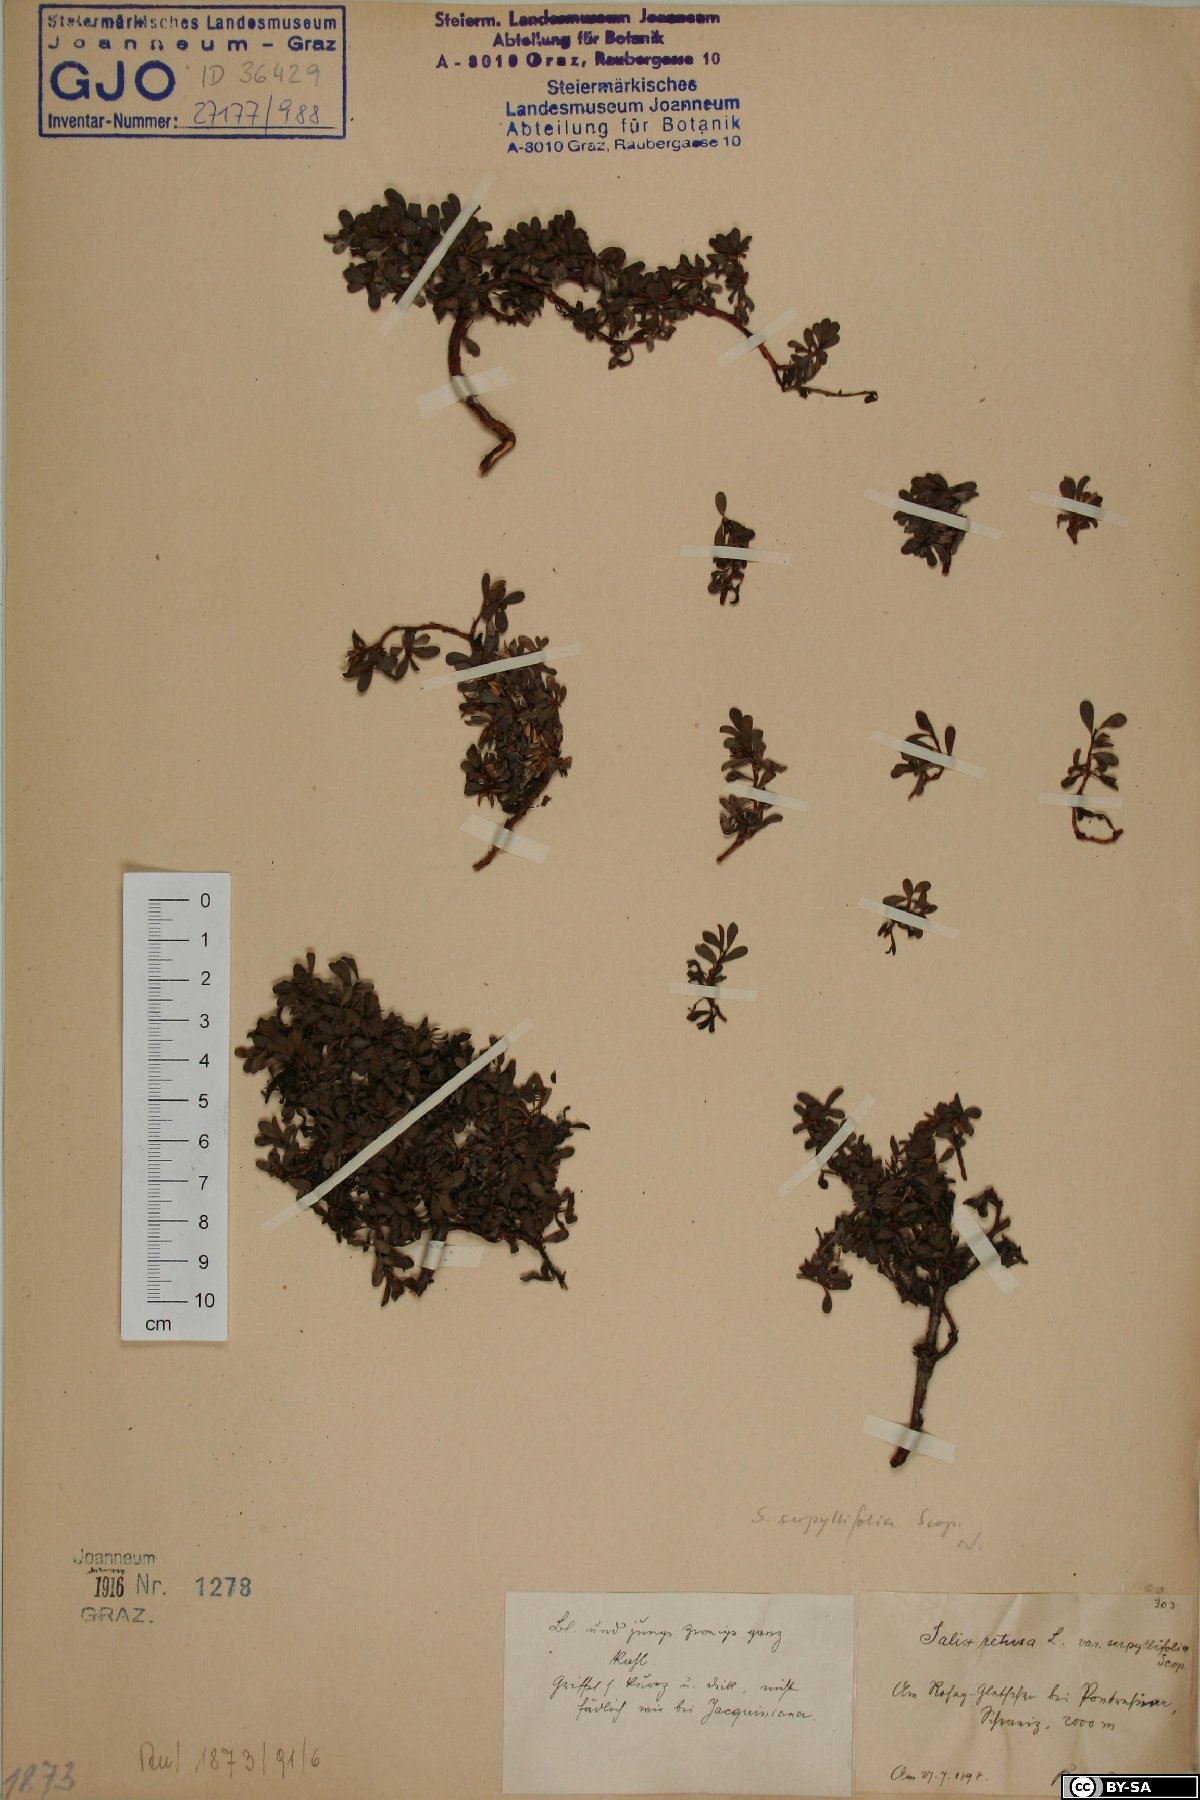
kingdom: Plantae
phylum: Tracheophyta
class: Magnoliopsida
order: Malpighiales
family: Salicaceae
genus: Salix
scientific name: Salix serpillifolia
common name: Thyme-leaf willow
